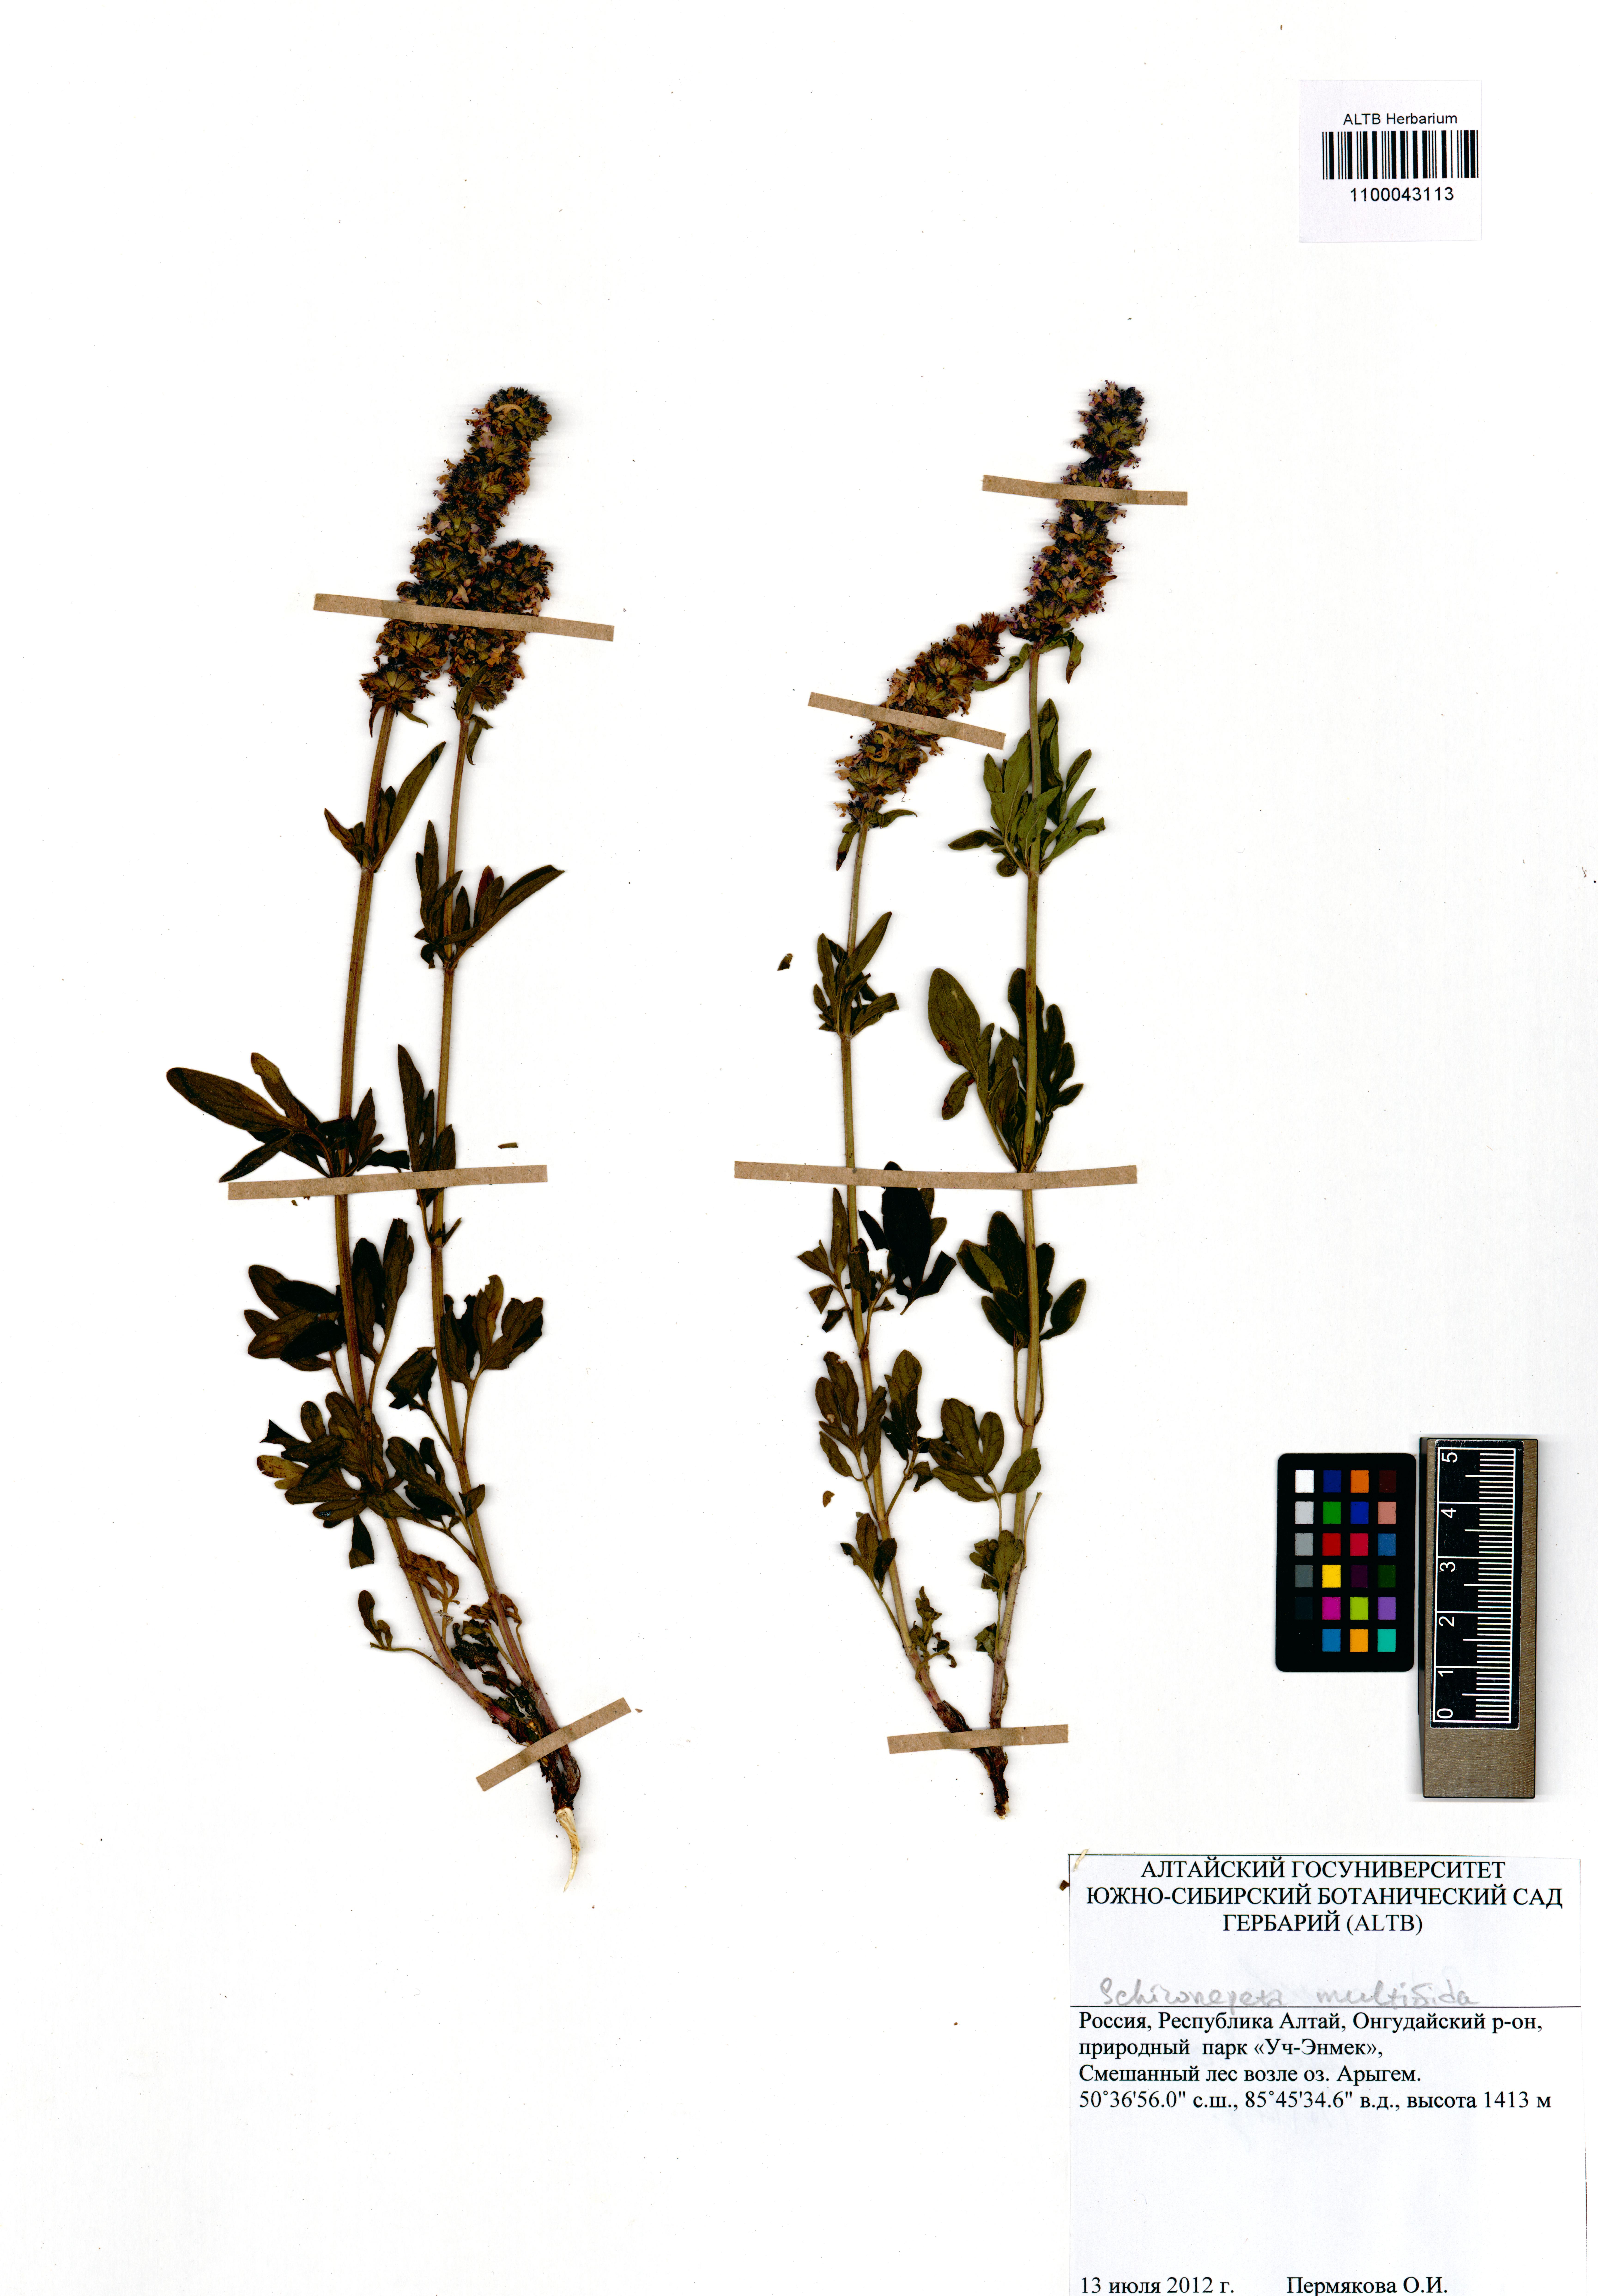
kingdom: Plantae
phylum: Tracheophyta
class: Magnoliopsida
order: Lamiales
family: Lamiaceae
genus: Nepeta
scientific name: Nepeta multifida
